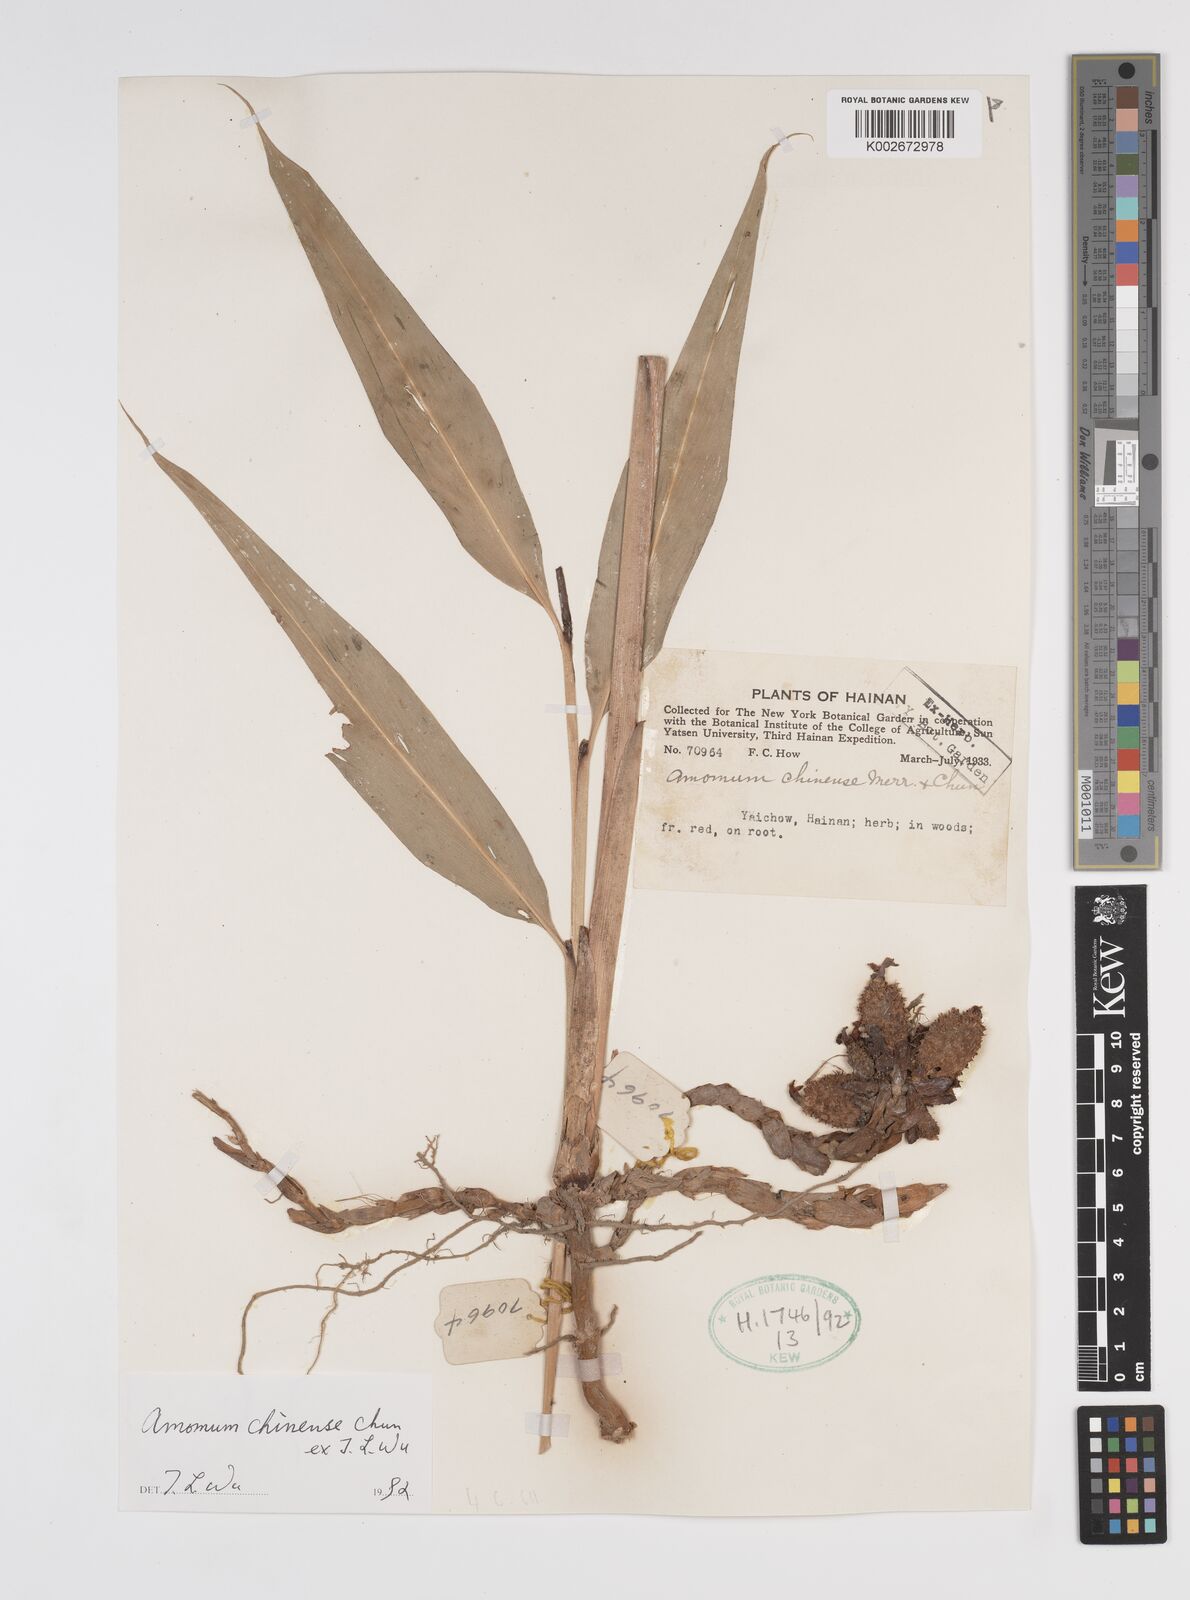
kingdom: Plantae
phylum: Tracheophyta
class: Liliopsida
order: Zingiberales
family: Zingiberaceae
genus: Meistera
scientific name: Meistera chinensis
